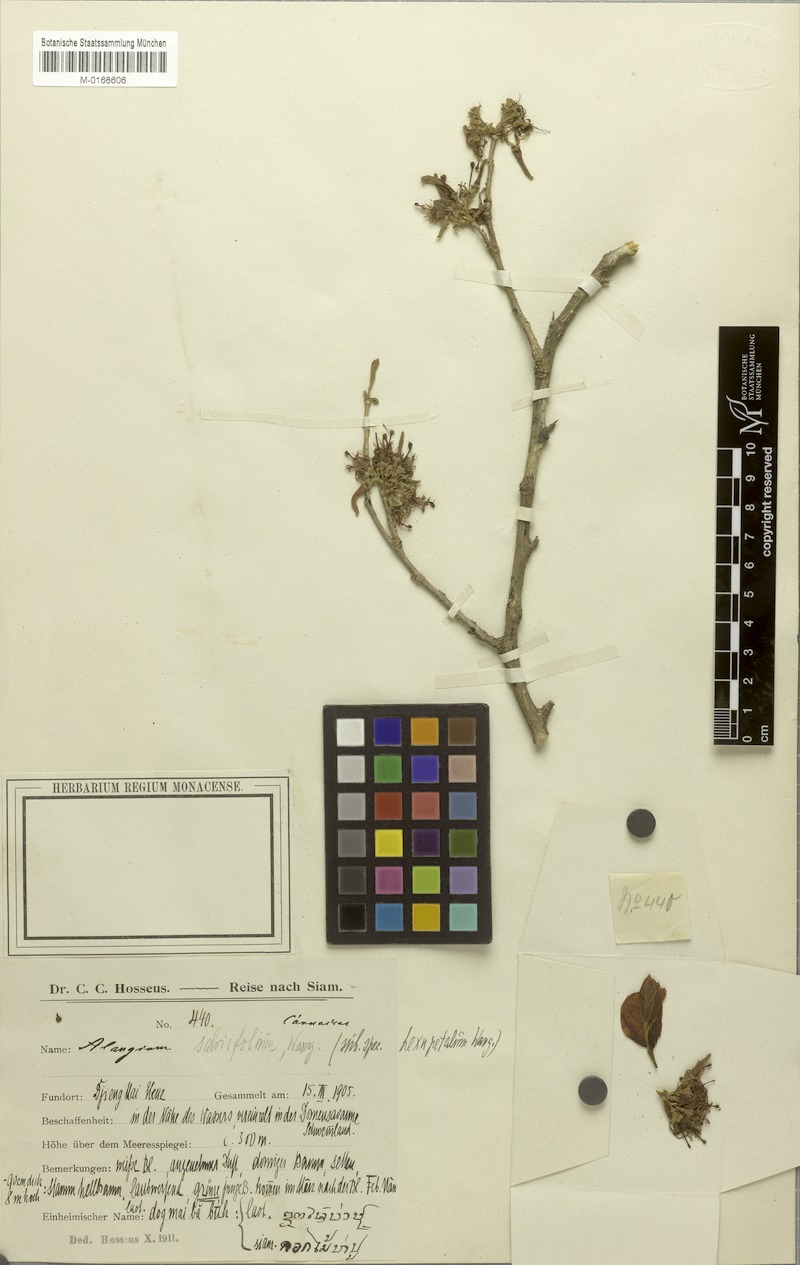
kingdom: Plantae
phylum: Tracheophyta
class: Magnoliopsida
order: Cornales
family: Cornaceae
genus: Alangium
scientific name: Alangium indochinense
